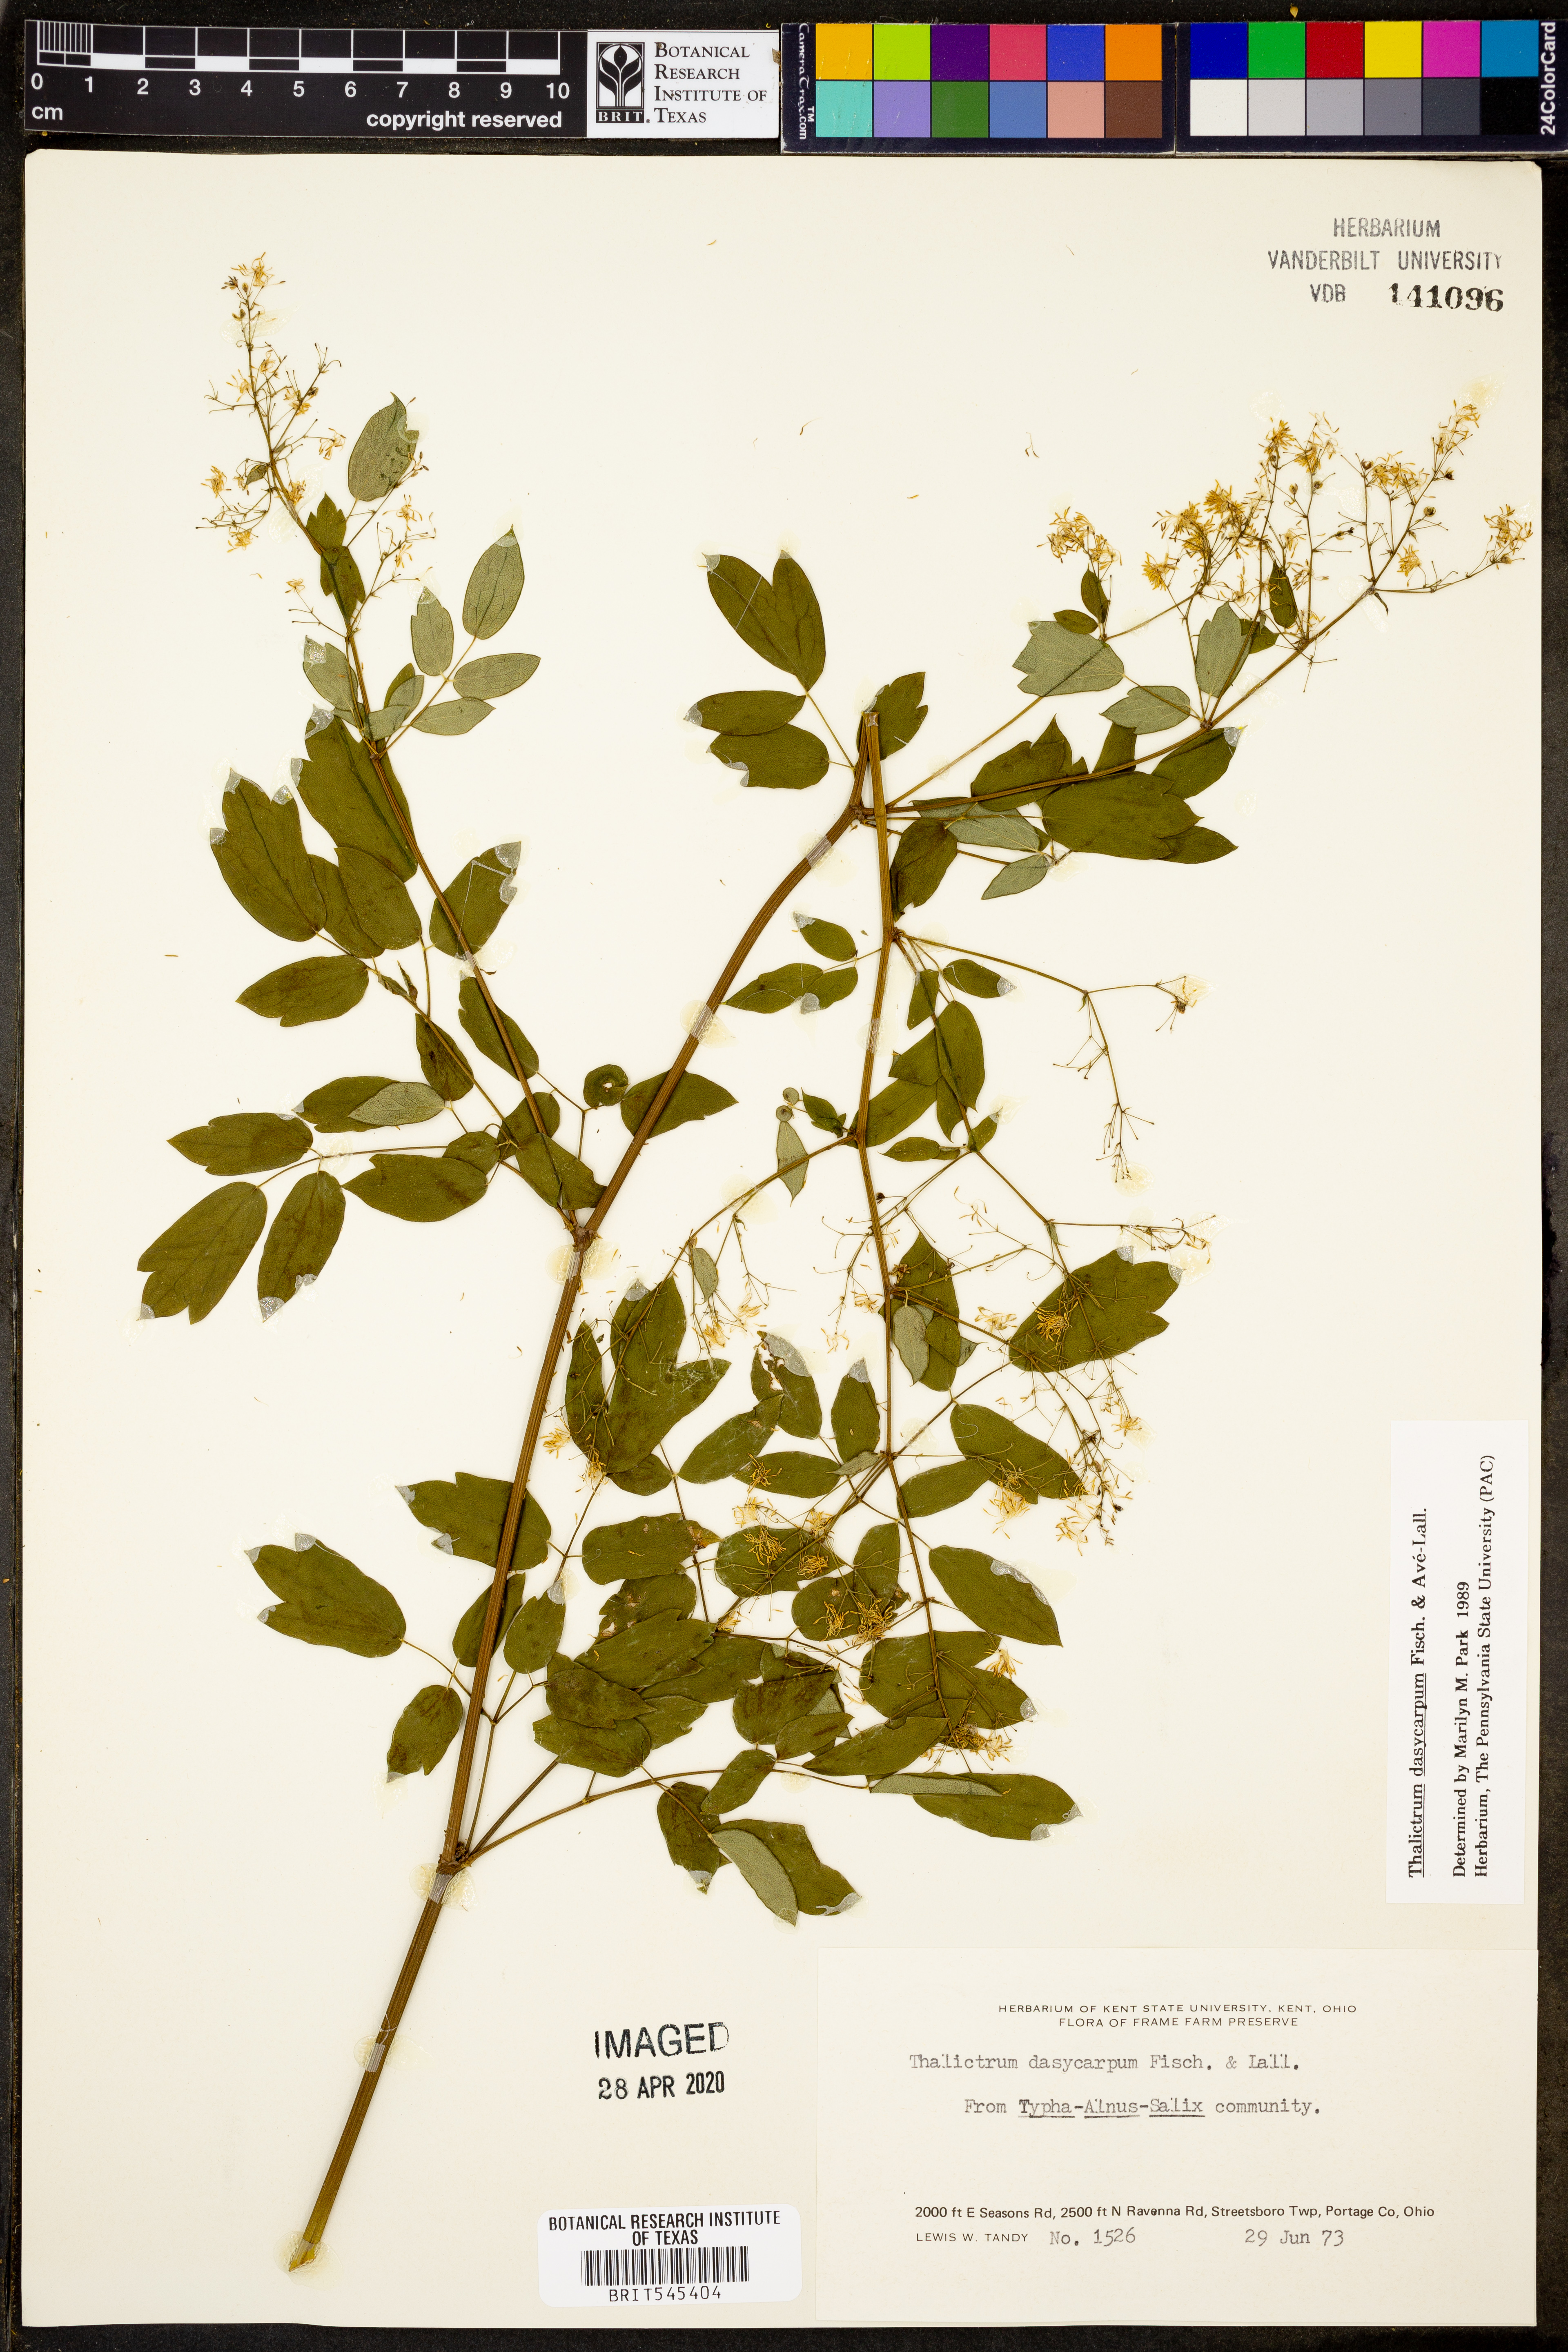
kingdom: Plantae
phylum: Tracheophyta
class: Magnoliopsida
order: Ranunculales
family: Ranunculaceae
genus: Thalictrum
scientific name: Thalictrum dasycarpum
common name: Purple meadow-rue
